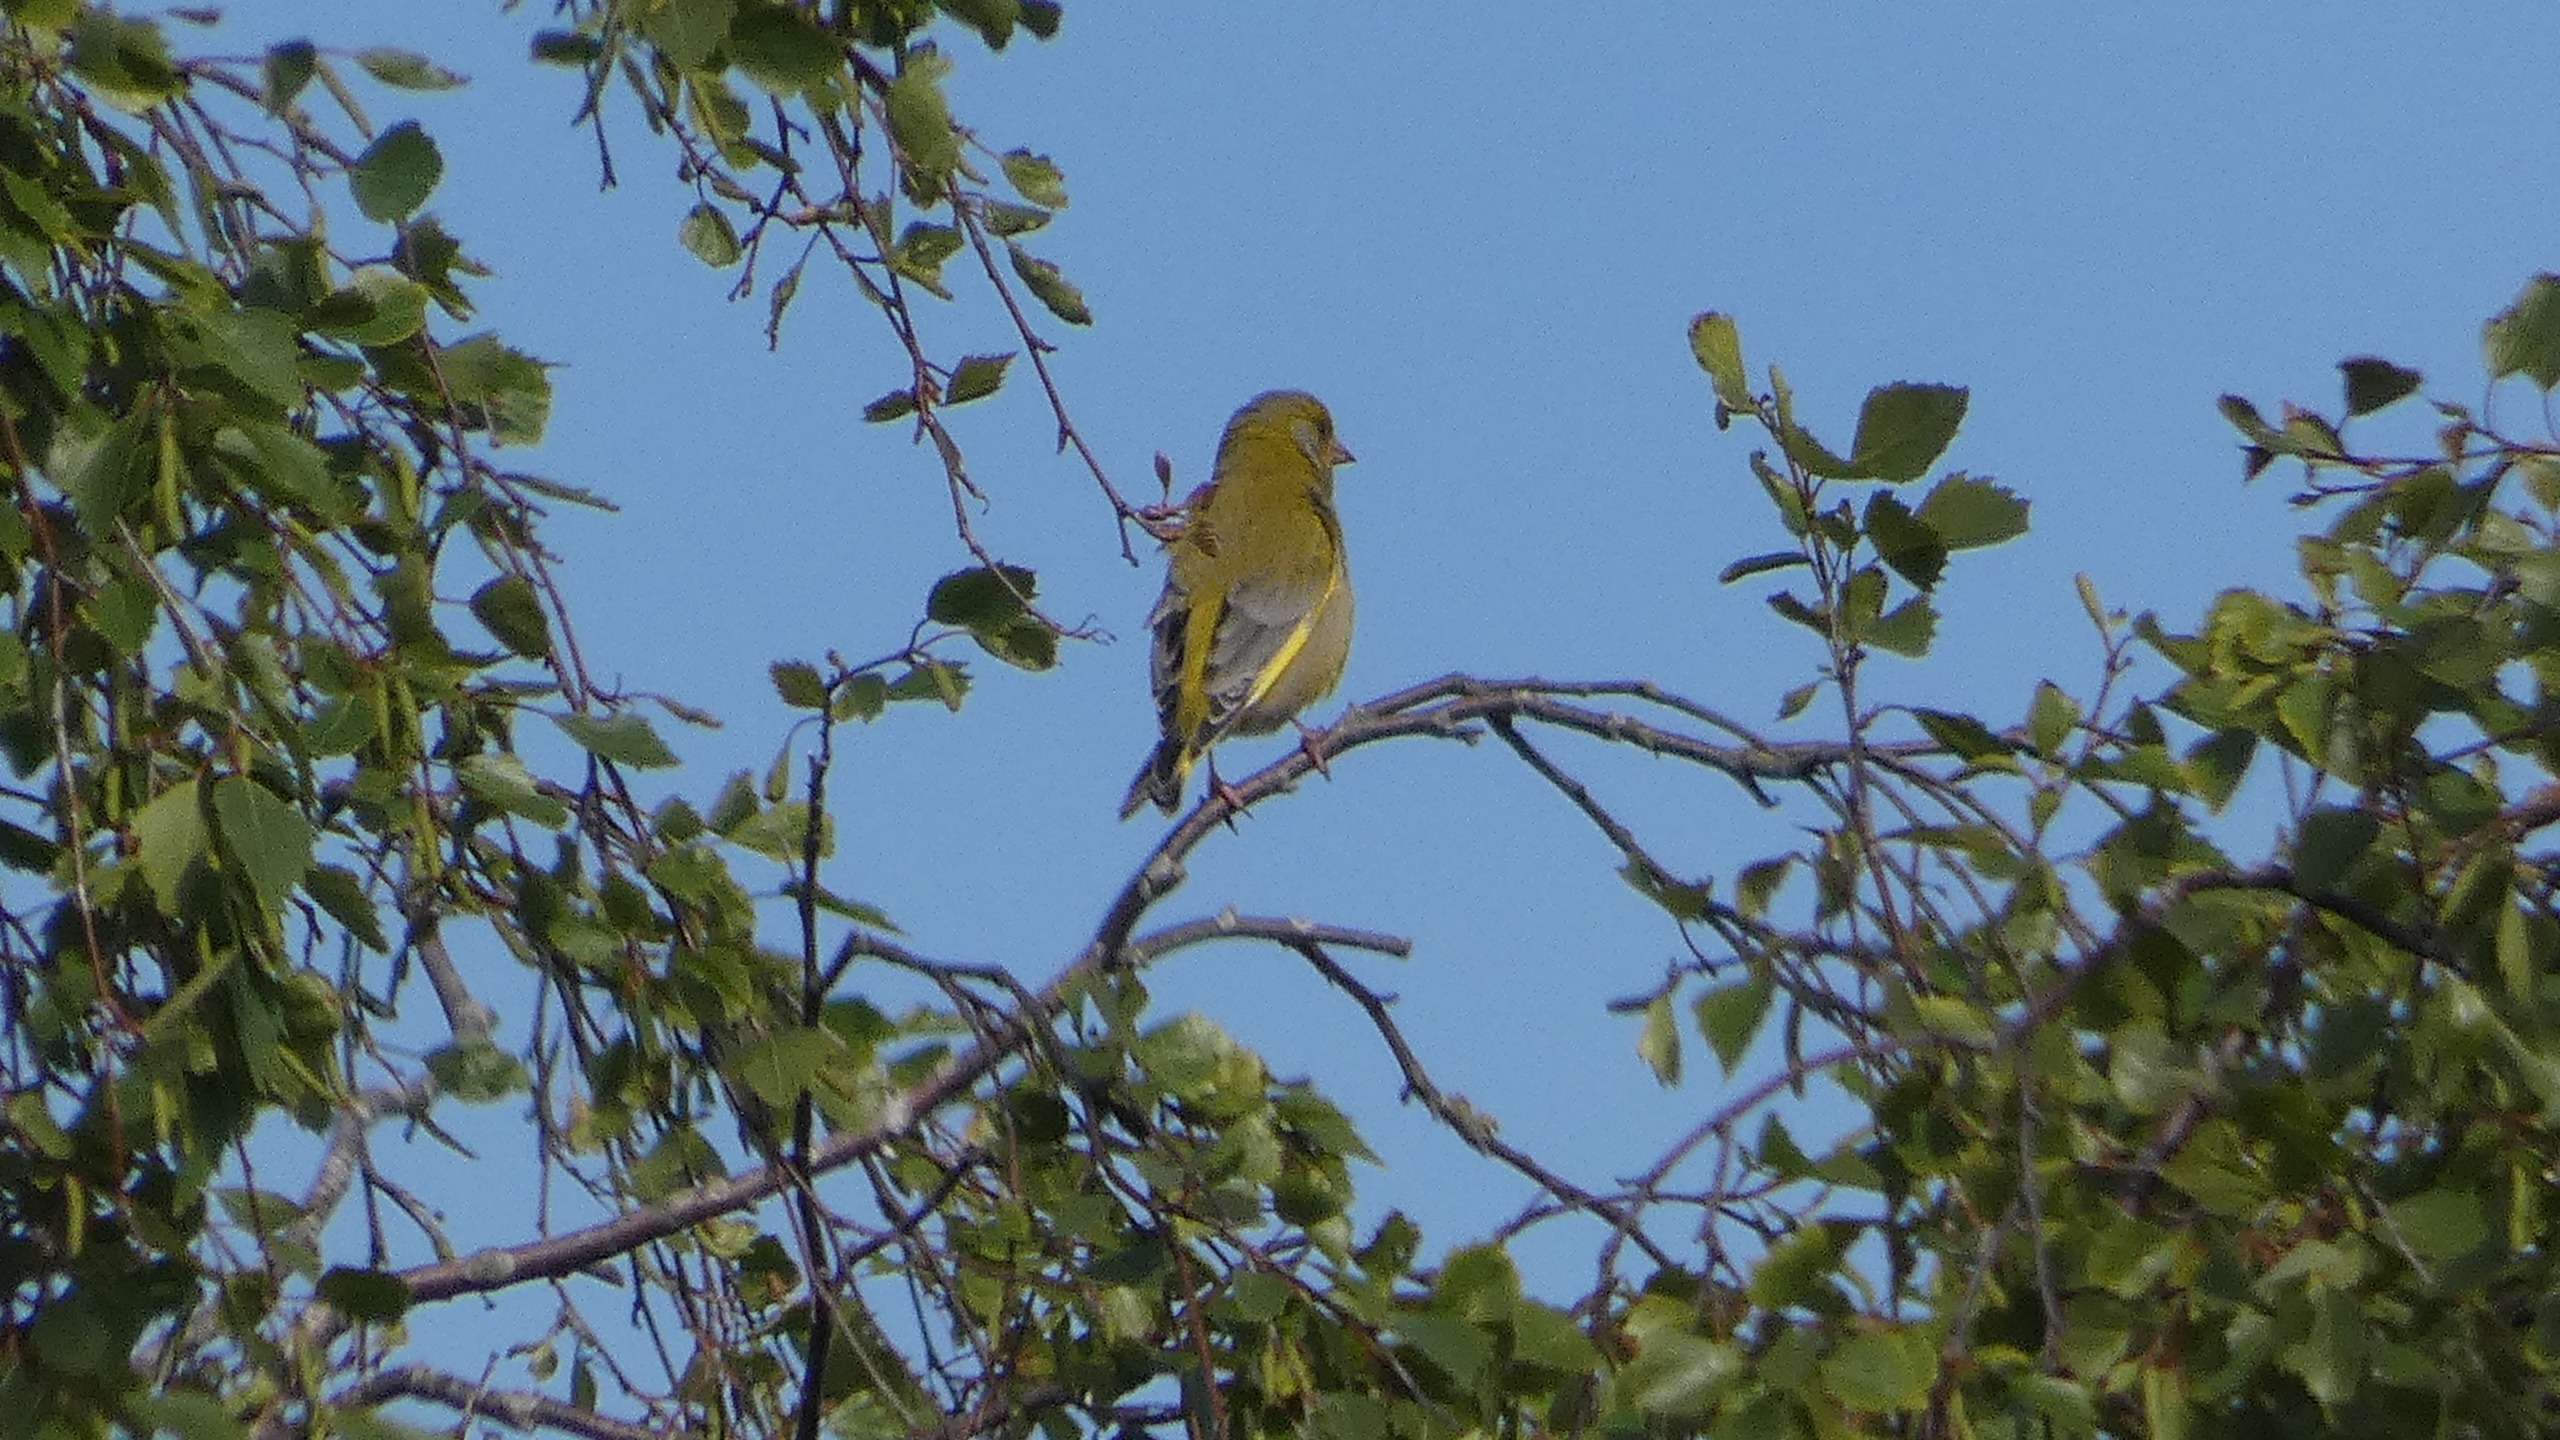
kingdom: Plantae
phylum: Tracheophyta
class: Liliopsida
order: Poales
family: Poaceae
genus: Chloris
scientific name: Chloris chloris
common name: Grønirisk
